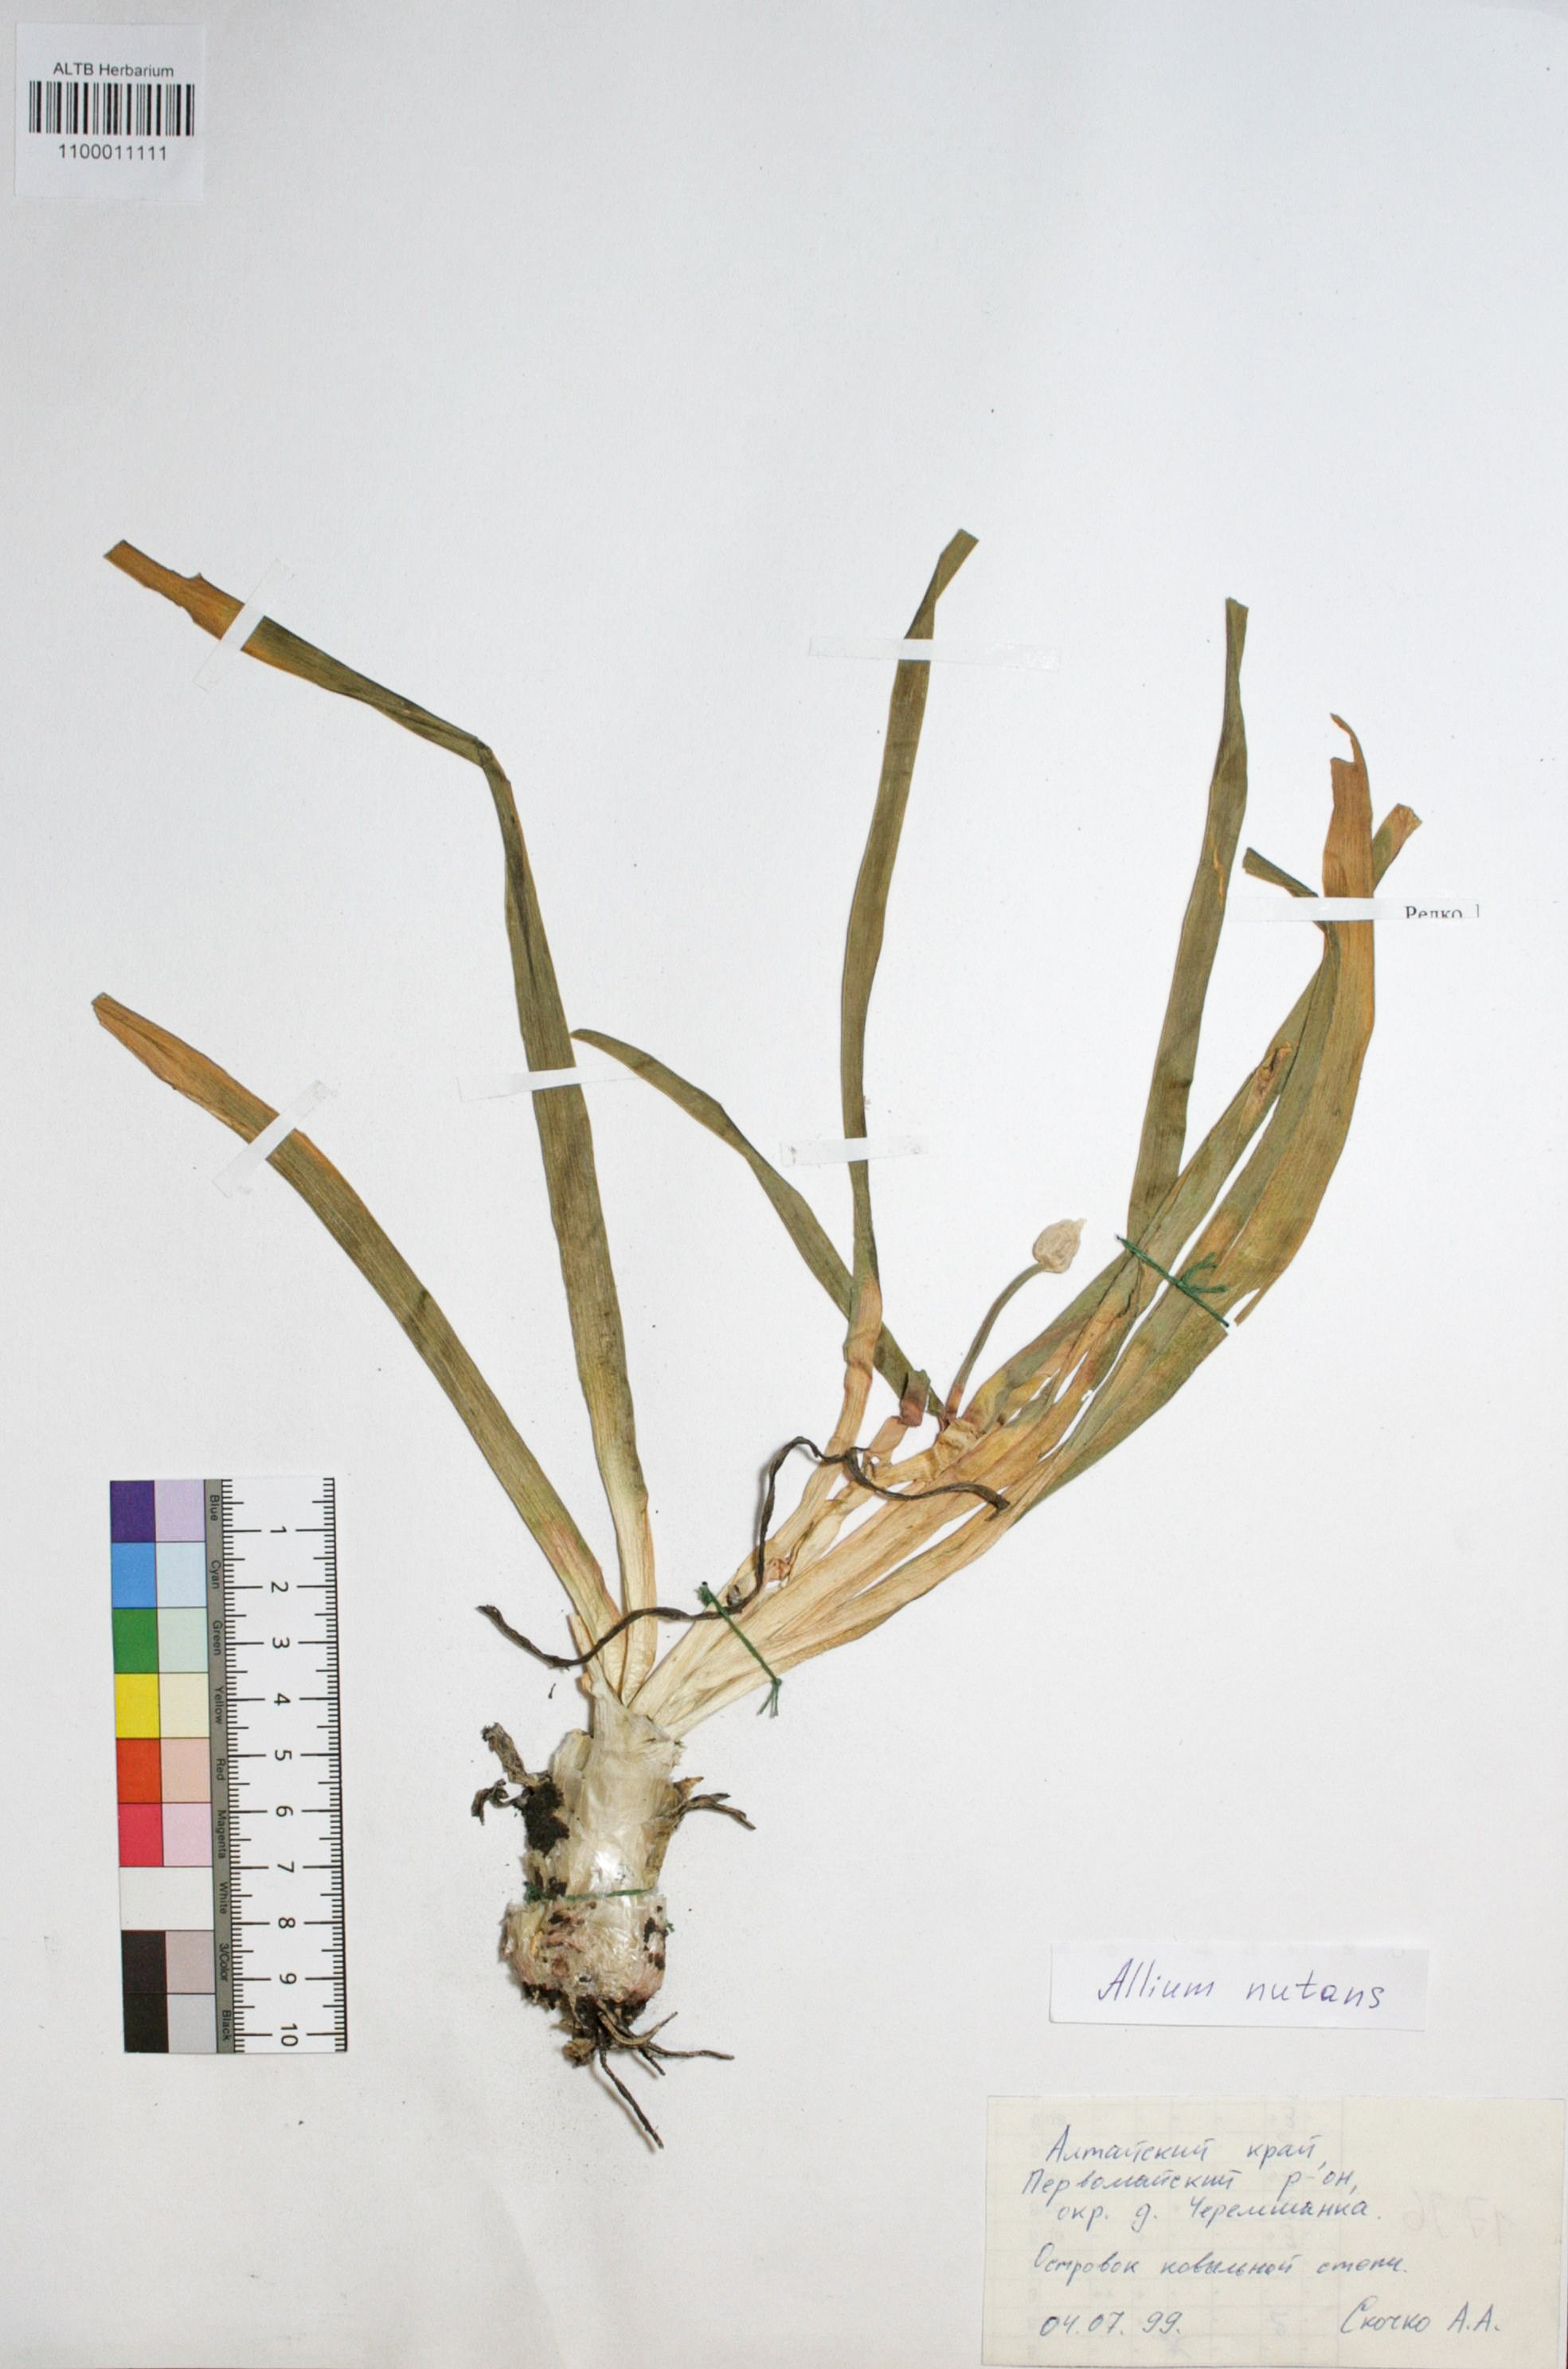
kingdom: Plantae
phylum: Tracheophyta
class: Liliopsida
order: Asparagales
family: Amaryllidaceae
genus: Allium
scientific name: Allium nutans
